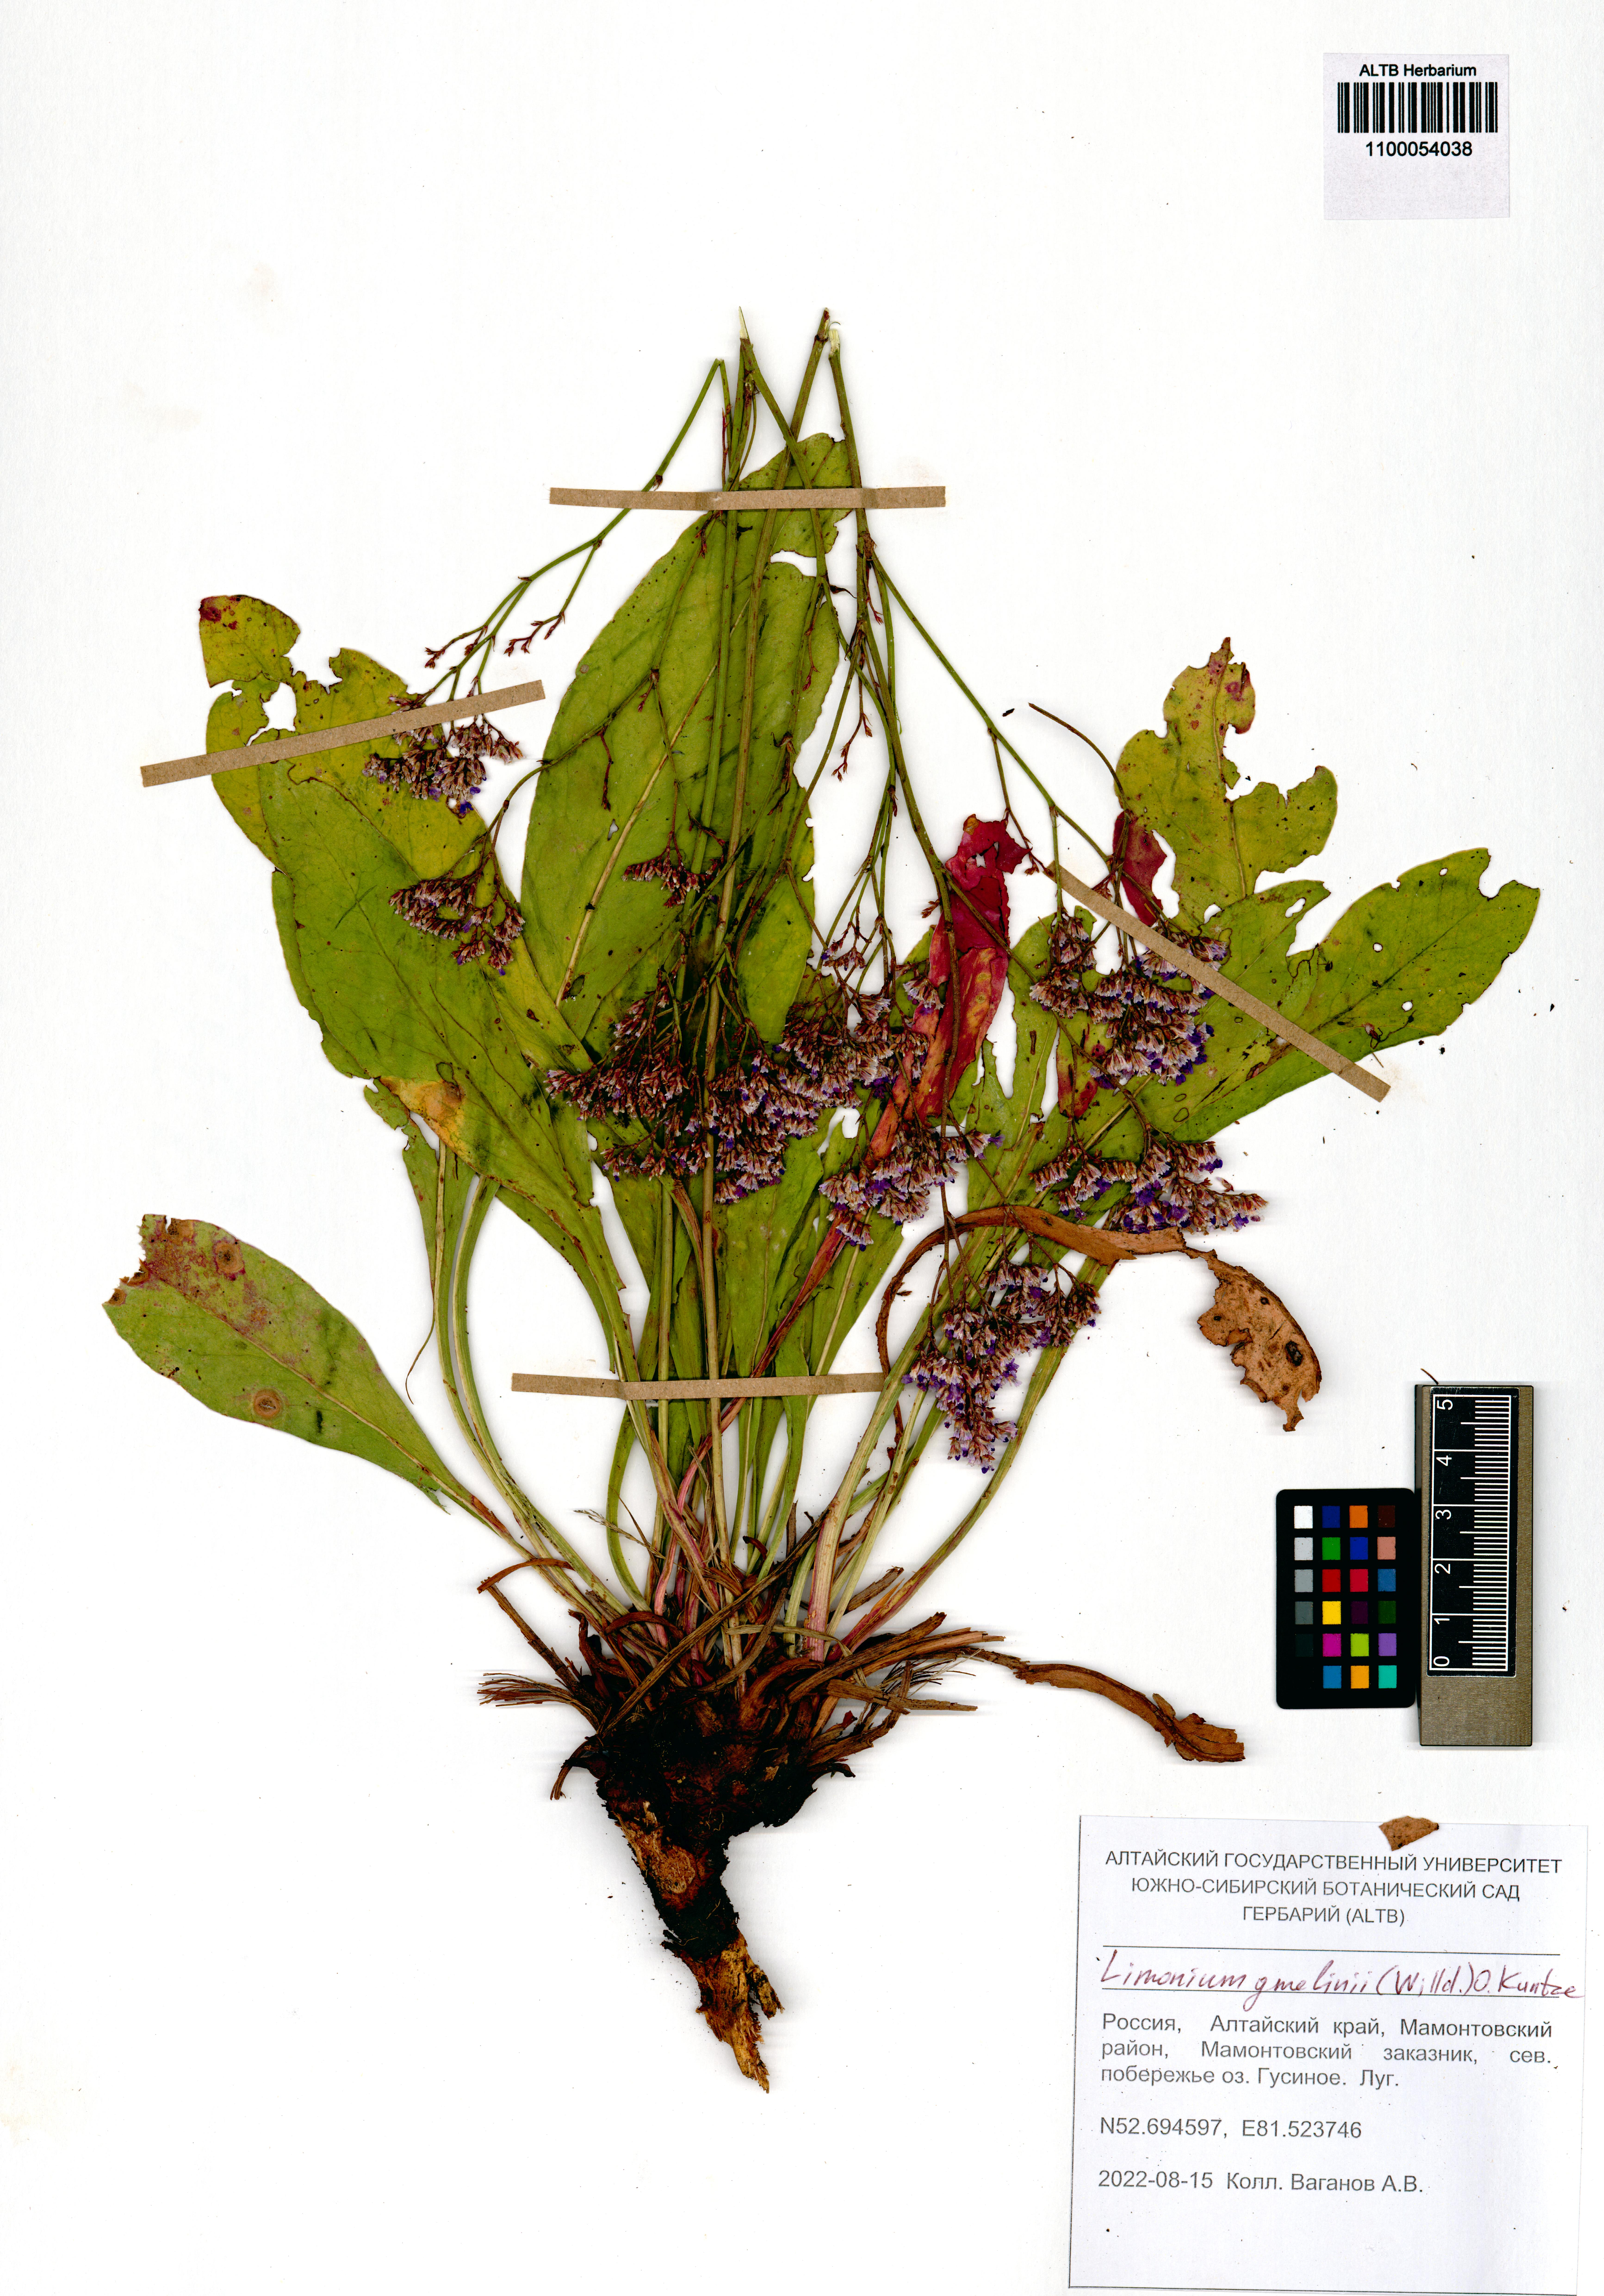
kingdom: Plantae
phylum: Tracheophyta
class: Magnoliopsida
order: Caryophyllales
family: Plumbaginaceae
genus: Limonium
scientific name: Limonium gmelini
